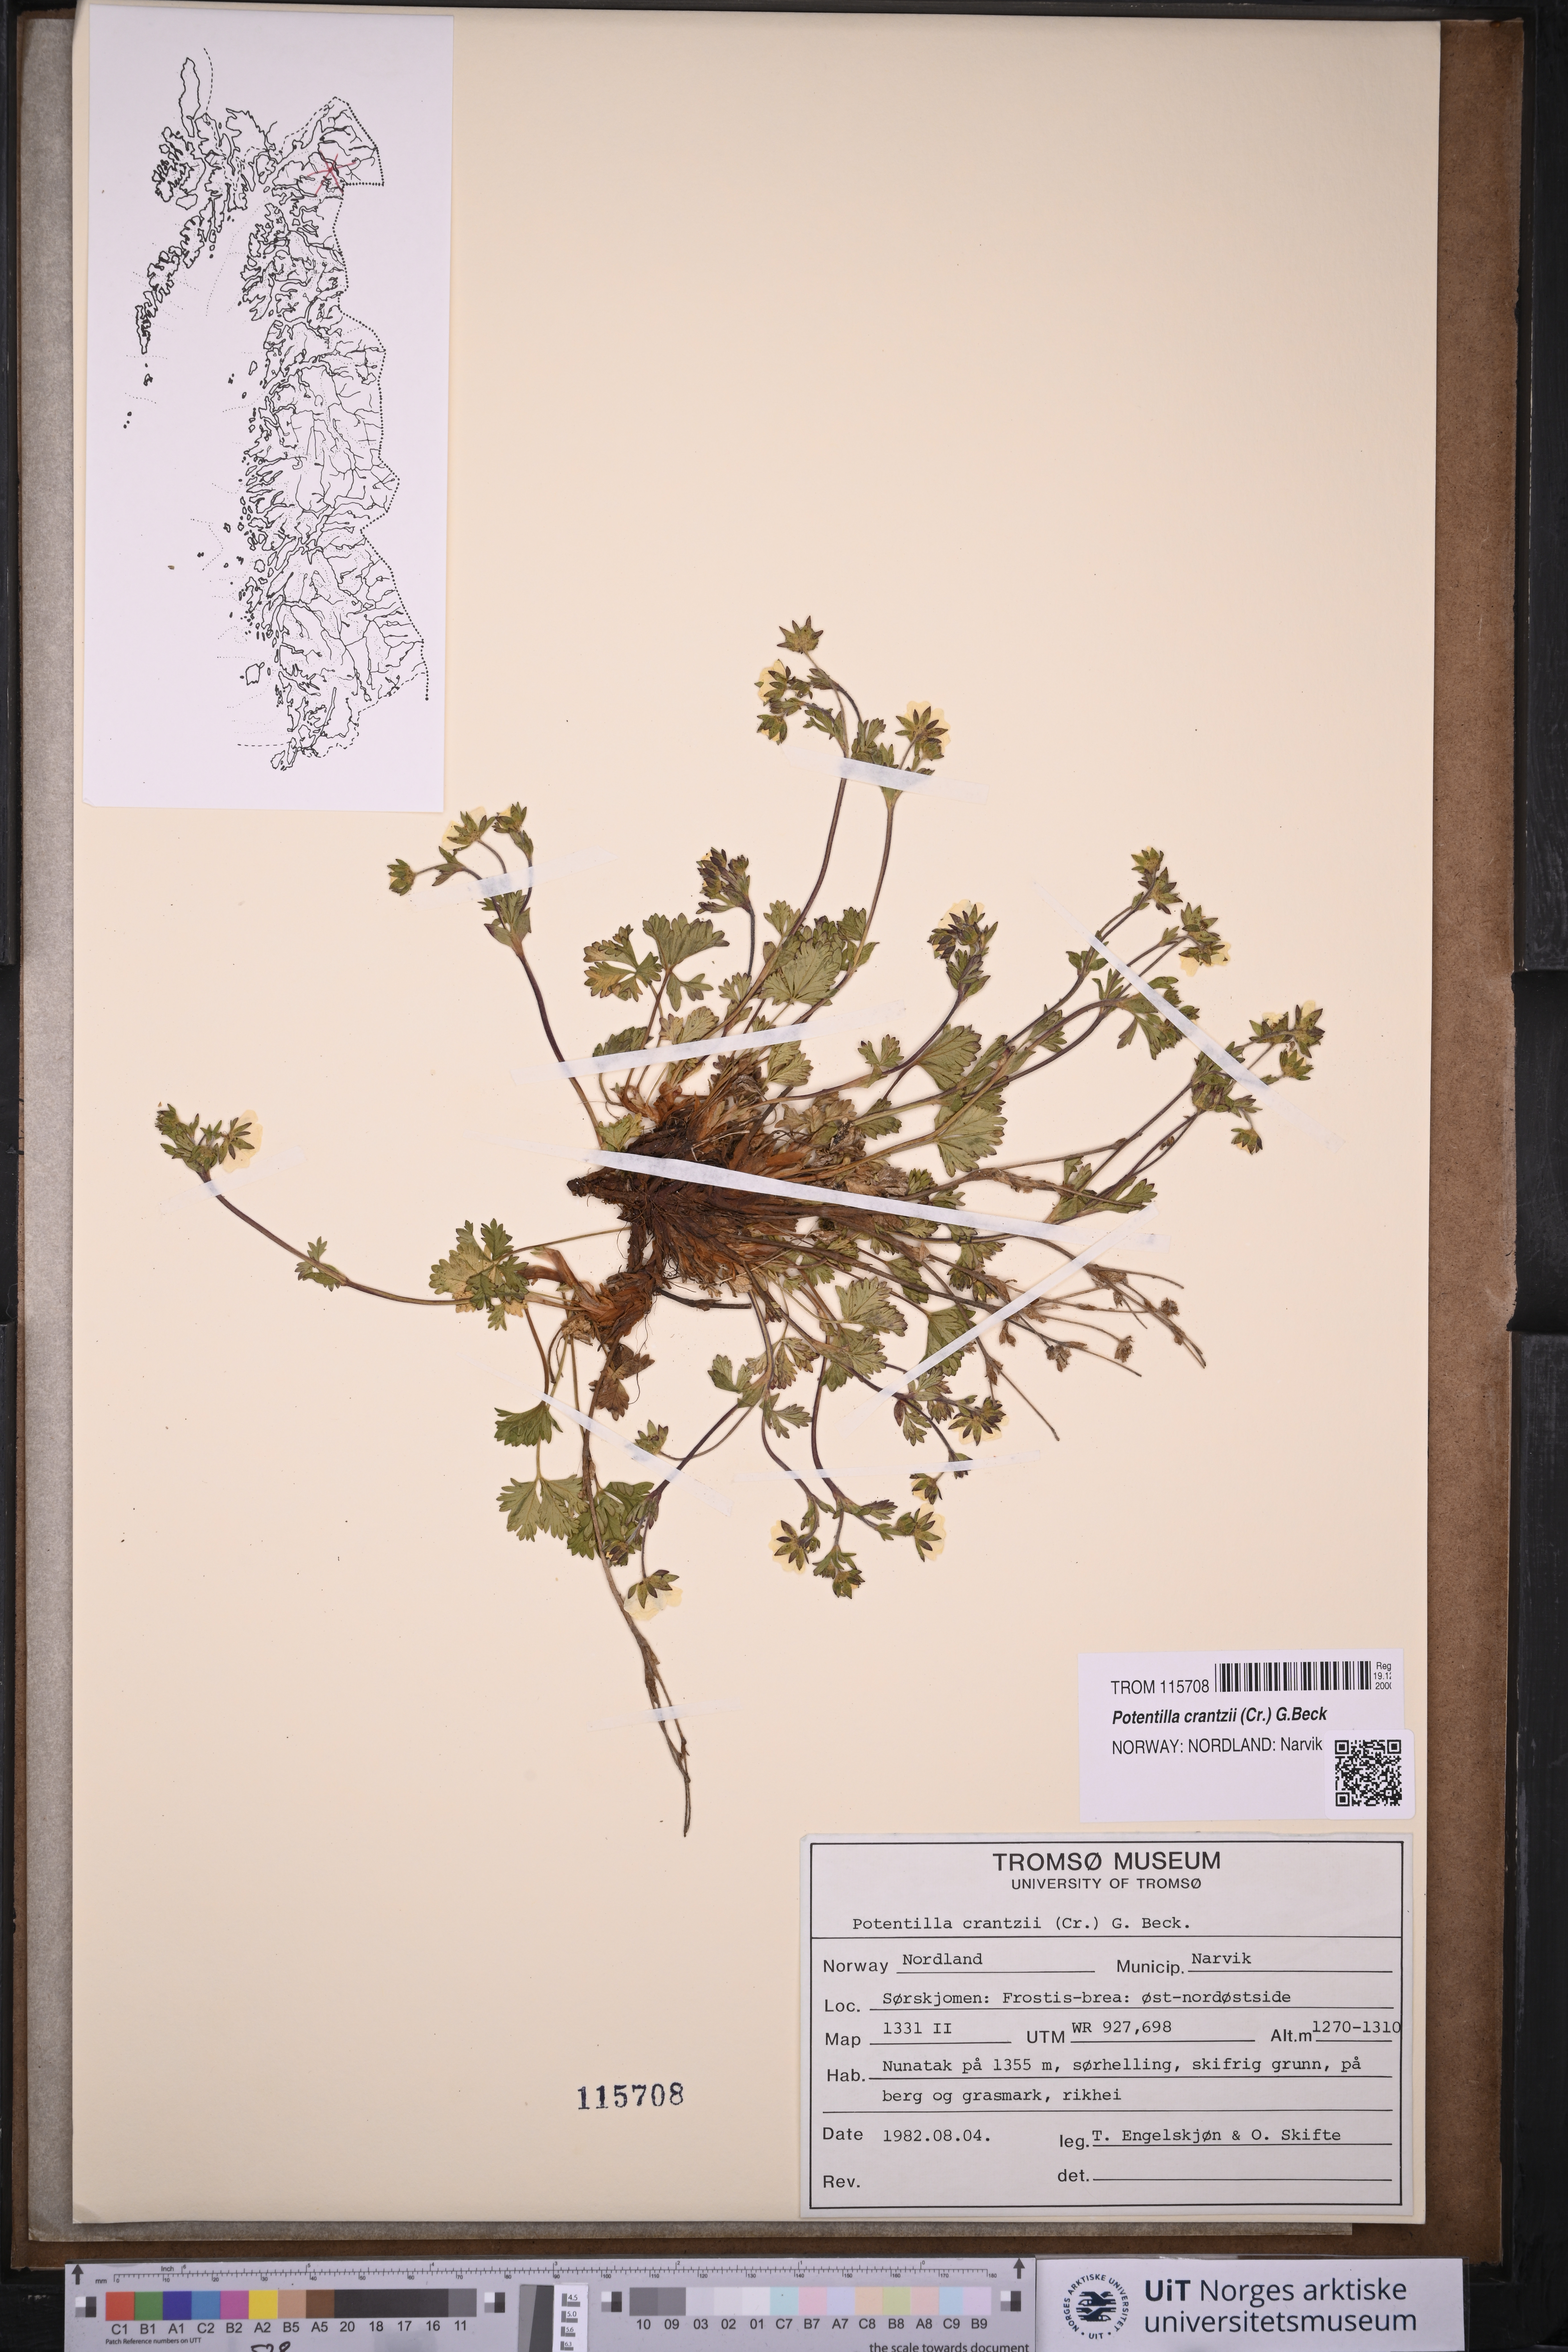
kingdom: Plantae
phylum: Tracheophyta
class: Magnoliopsida
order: Rosales
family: Rosaceae
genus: Potentilla
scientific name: Potentilla crantzii
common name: Alpine cinquefoil
